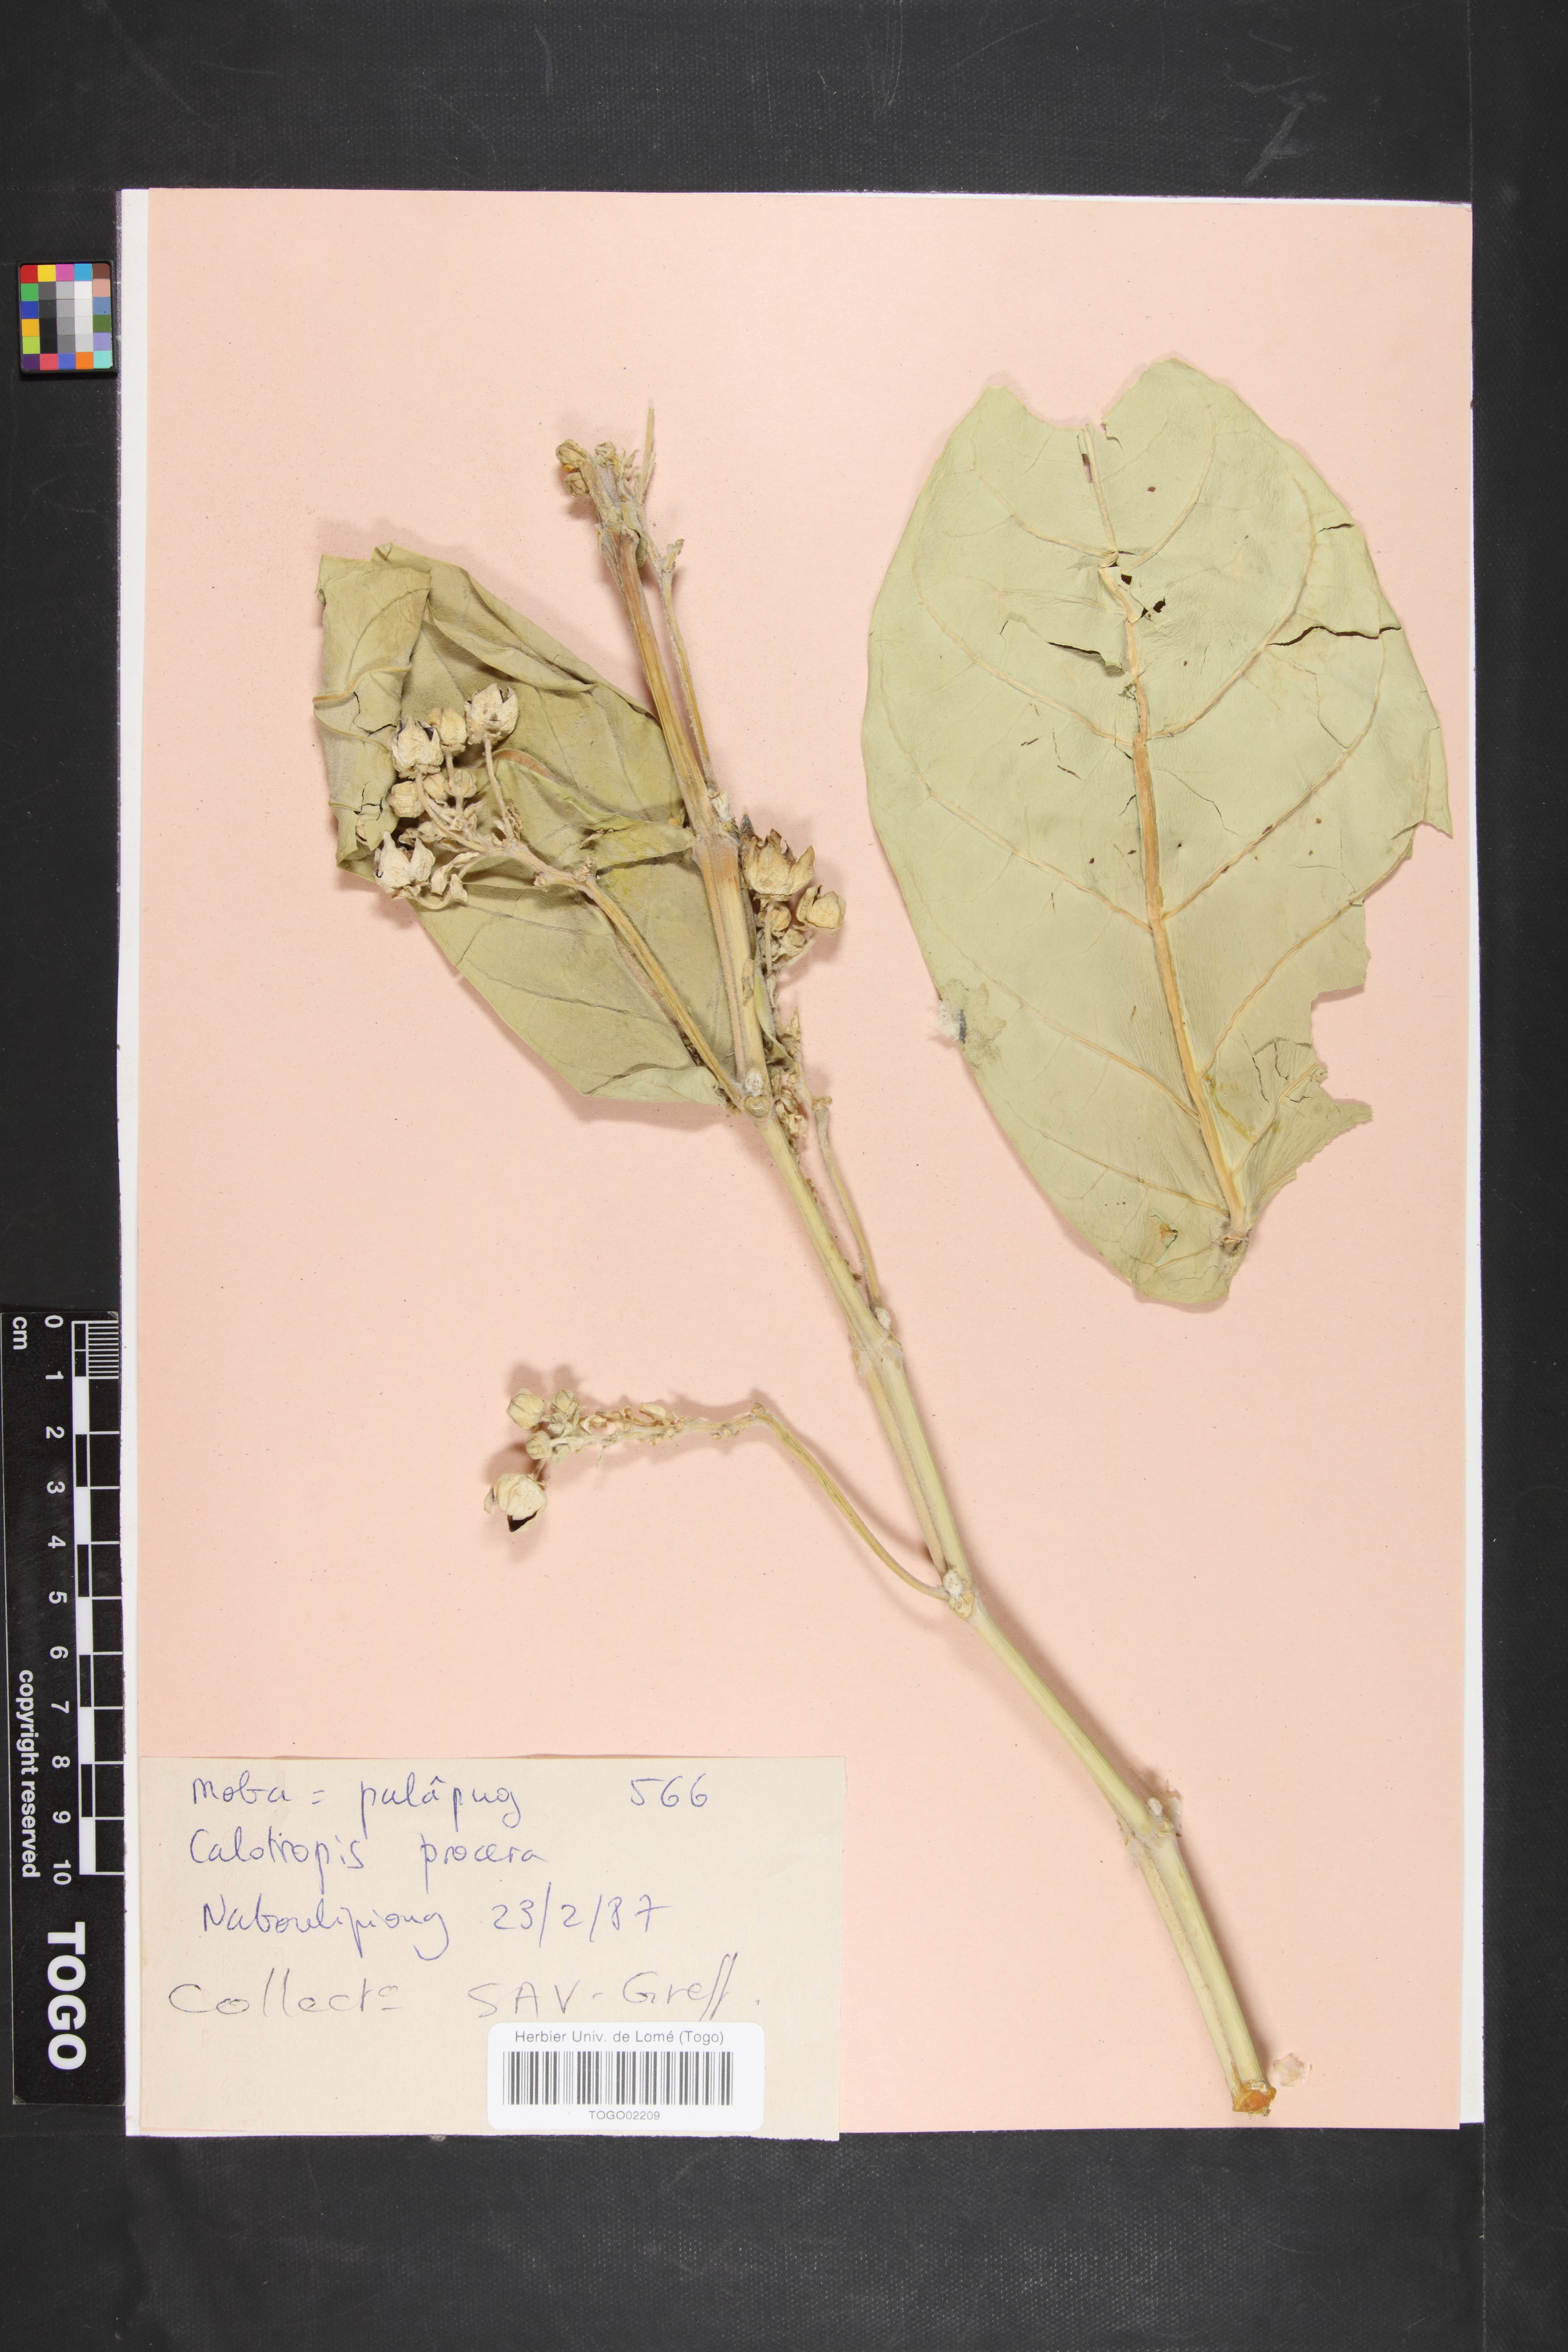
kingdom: Plantae
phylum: Tracheophyta
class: Magnoliopsida
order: Gentianales
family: Apocynaceae
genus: Calotropis
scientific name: Calotropis procera
